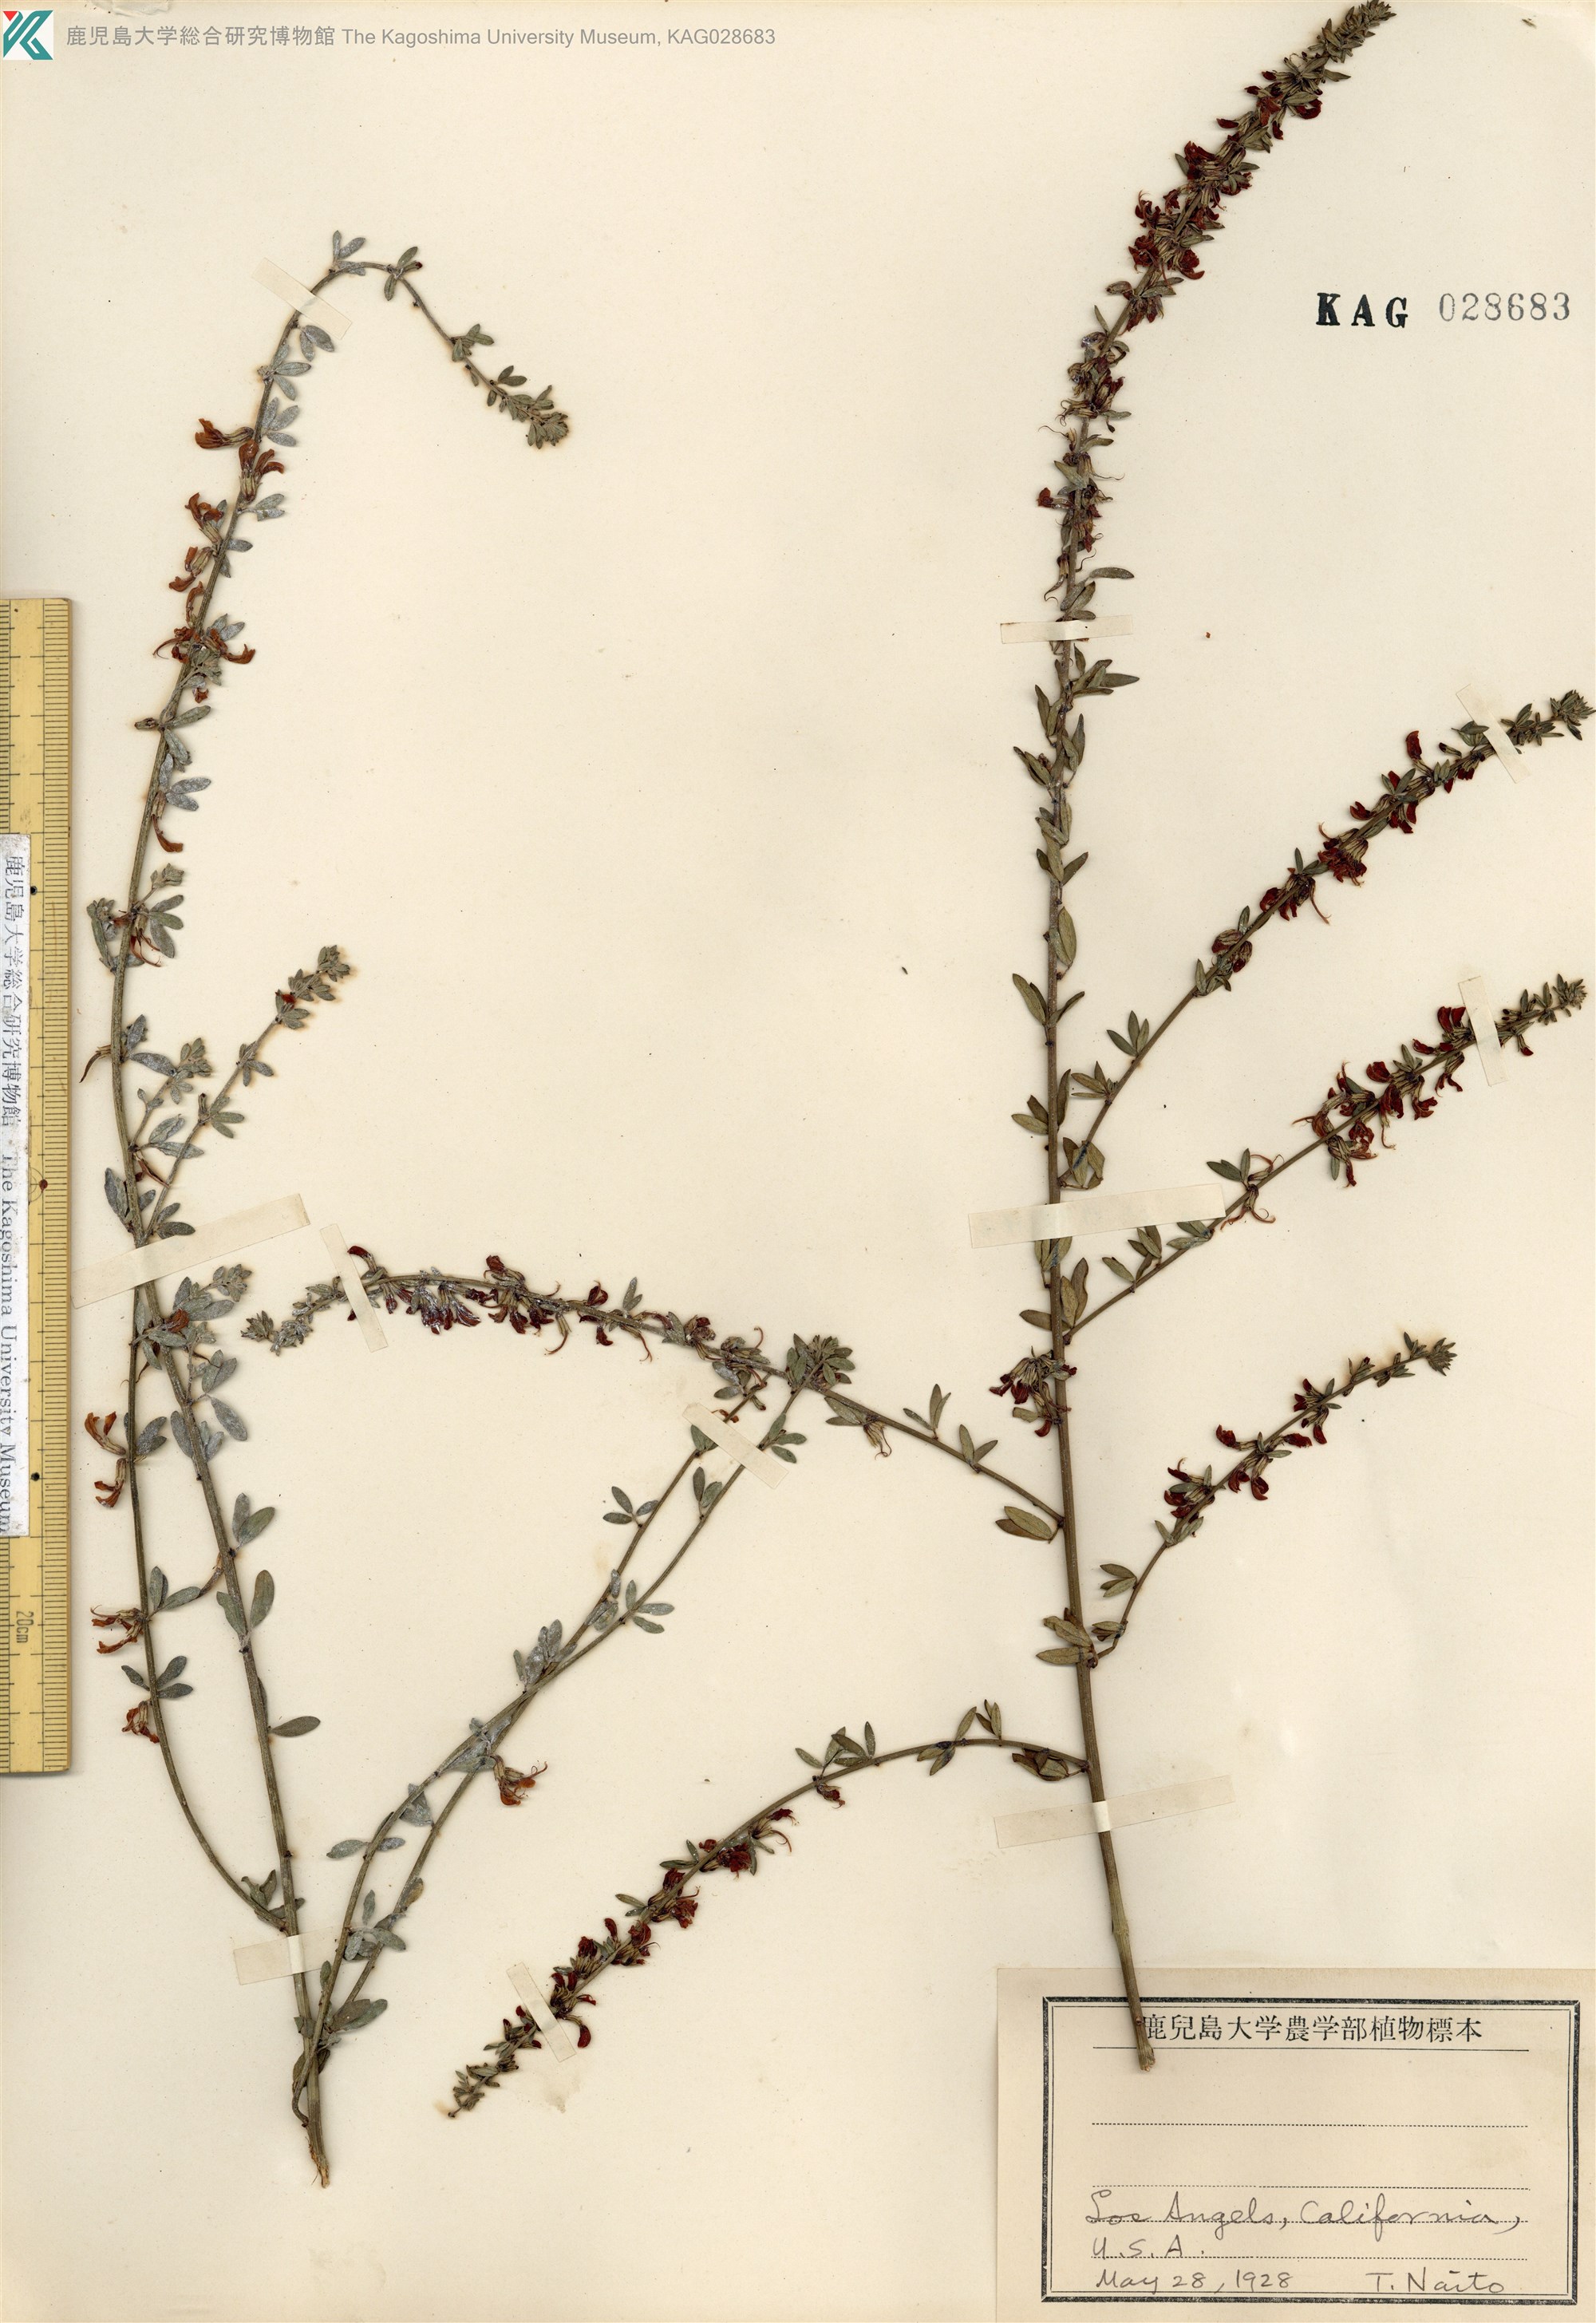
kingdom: Plantae
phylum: Tracheophyta
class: Magnoliopsida
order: Fabales
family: Fabaceae
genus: Acmispon
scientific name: Acmispon glaber
